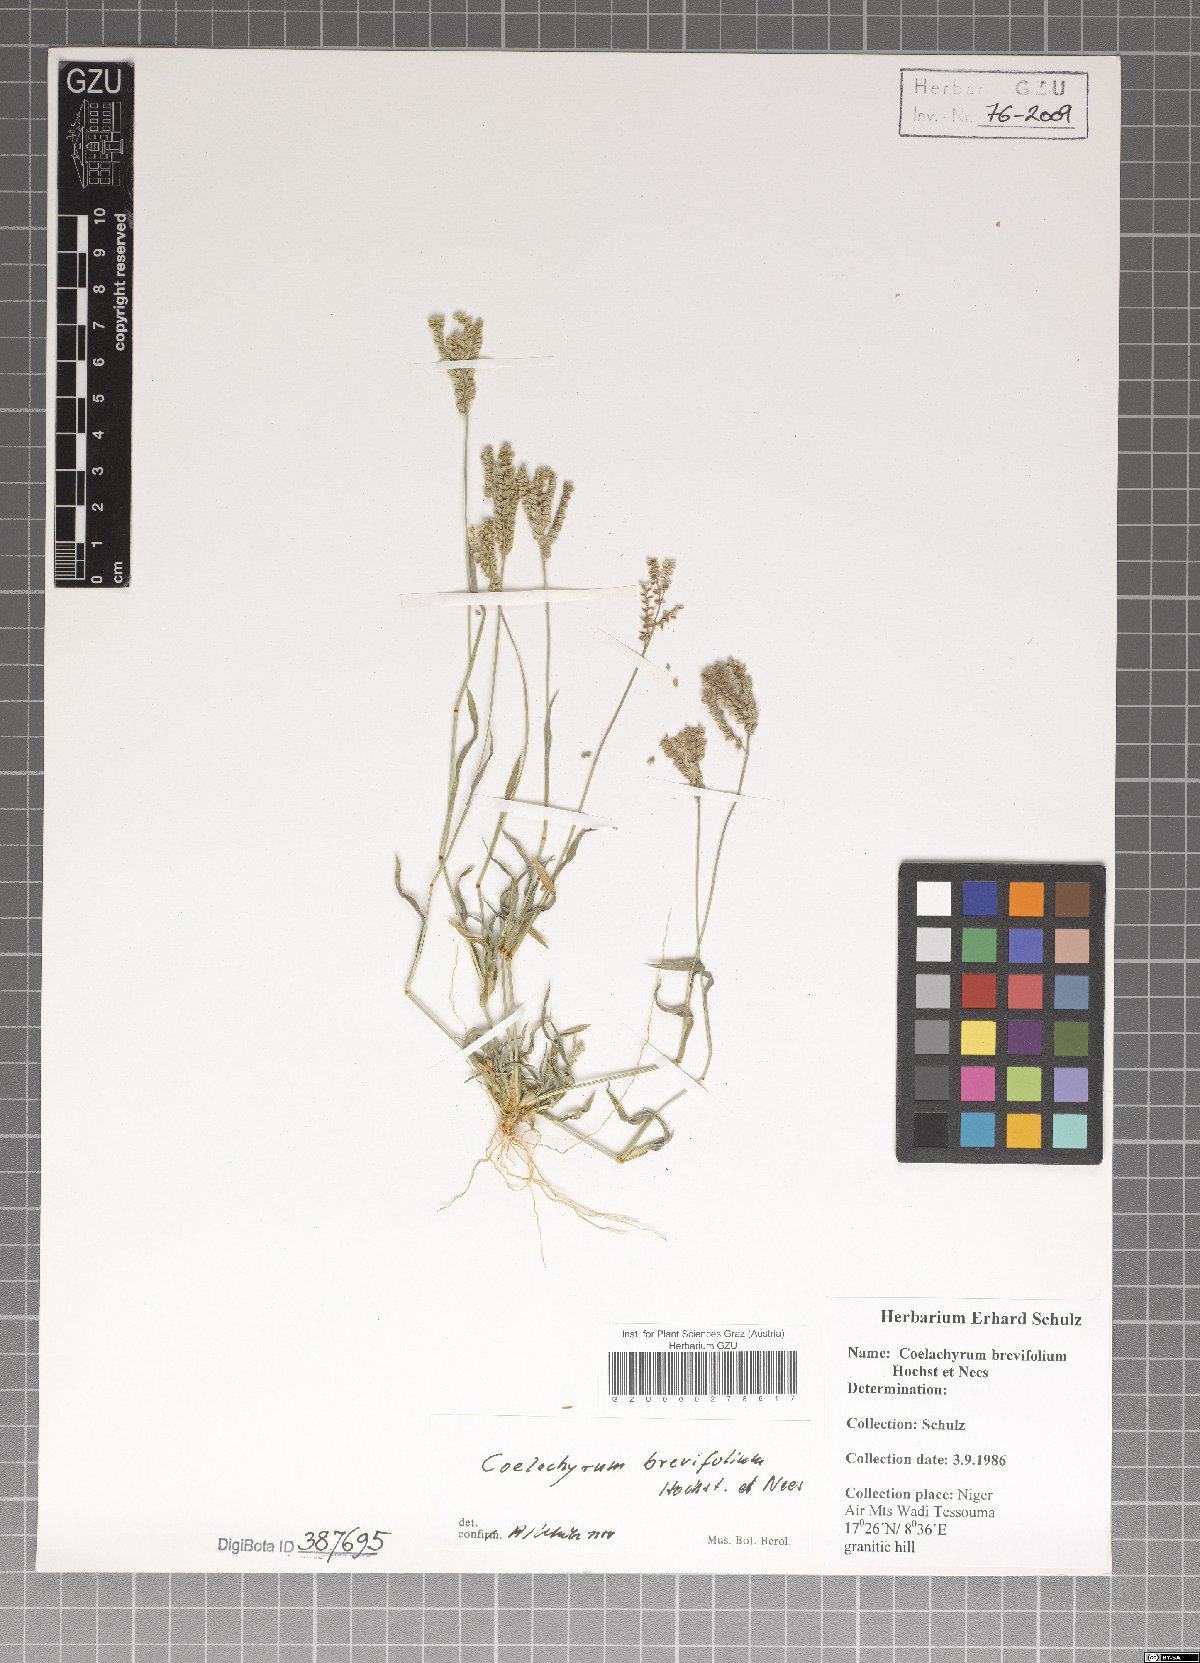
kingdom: Plantae
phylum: Tracheophyta
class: Liliopsida
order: Poales
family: Poaceae
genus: Coelachyrum
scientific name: Coelachyrum brevifolium
